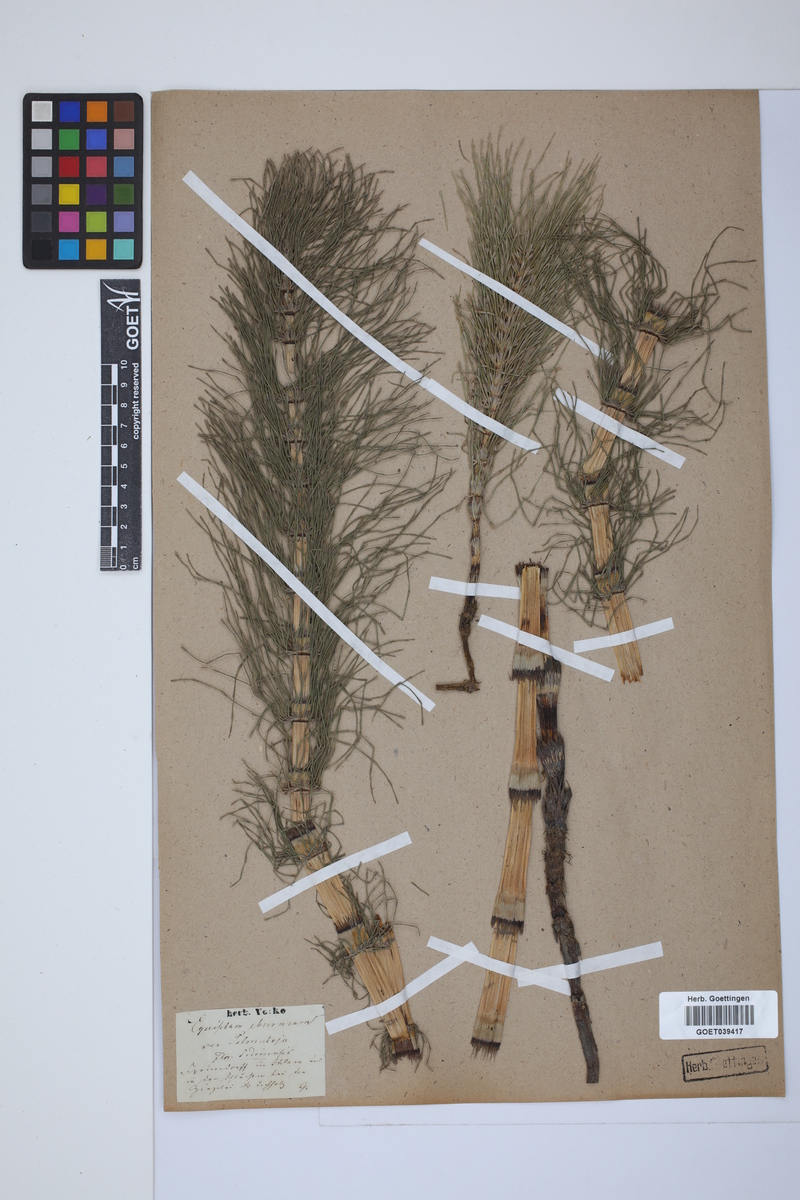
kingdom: Plantae
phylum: Tracheophyta
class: Polypodiopsida
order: Equisetales
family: Equisetaceae
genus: Equisetum
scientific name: Equisetum telmateia
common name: Great horsetail
